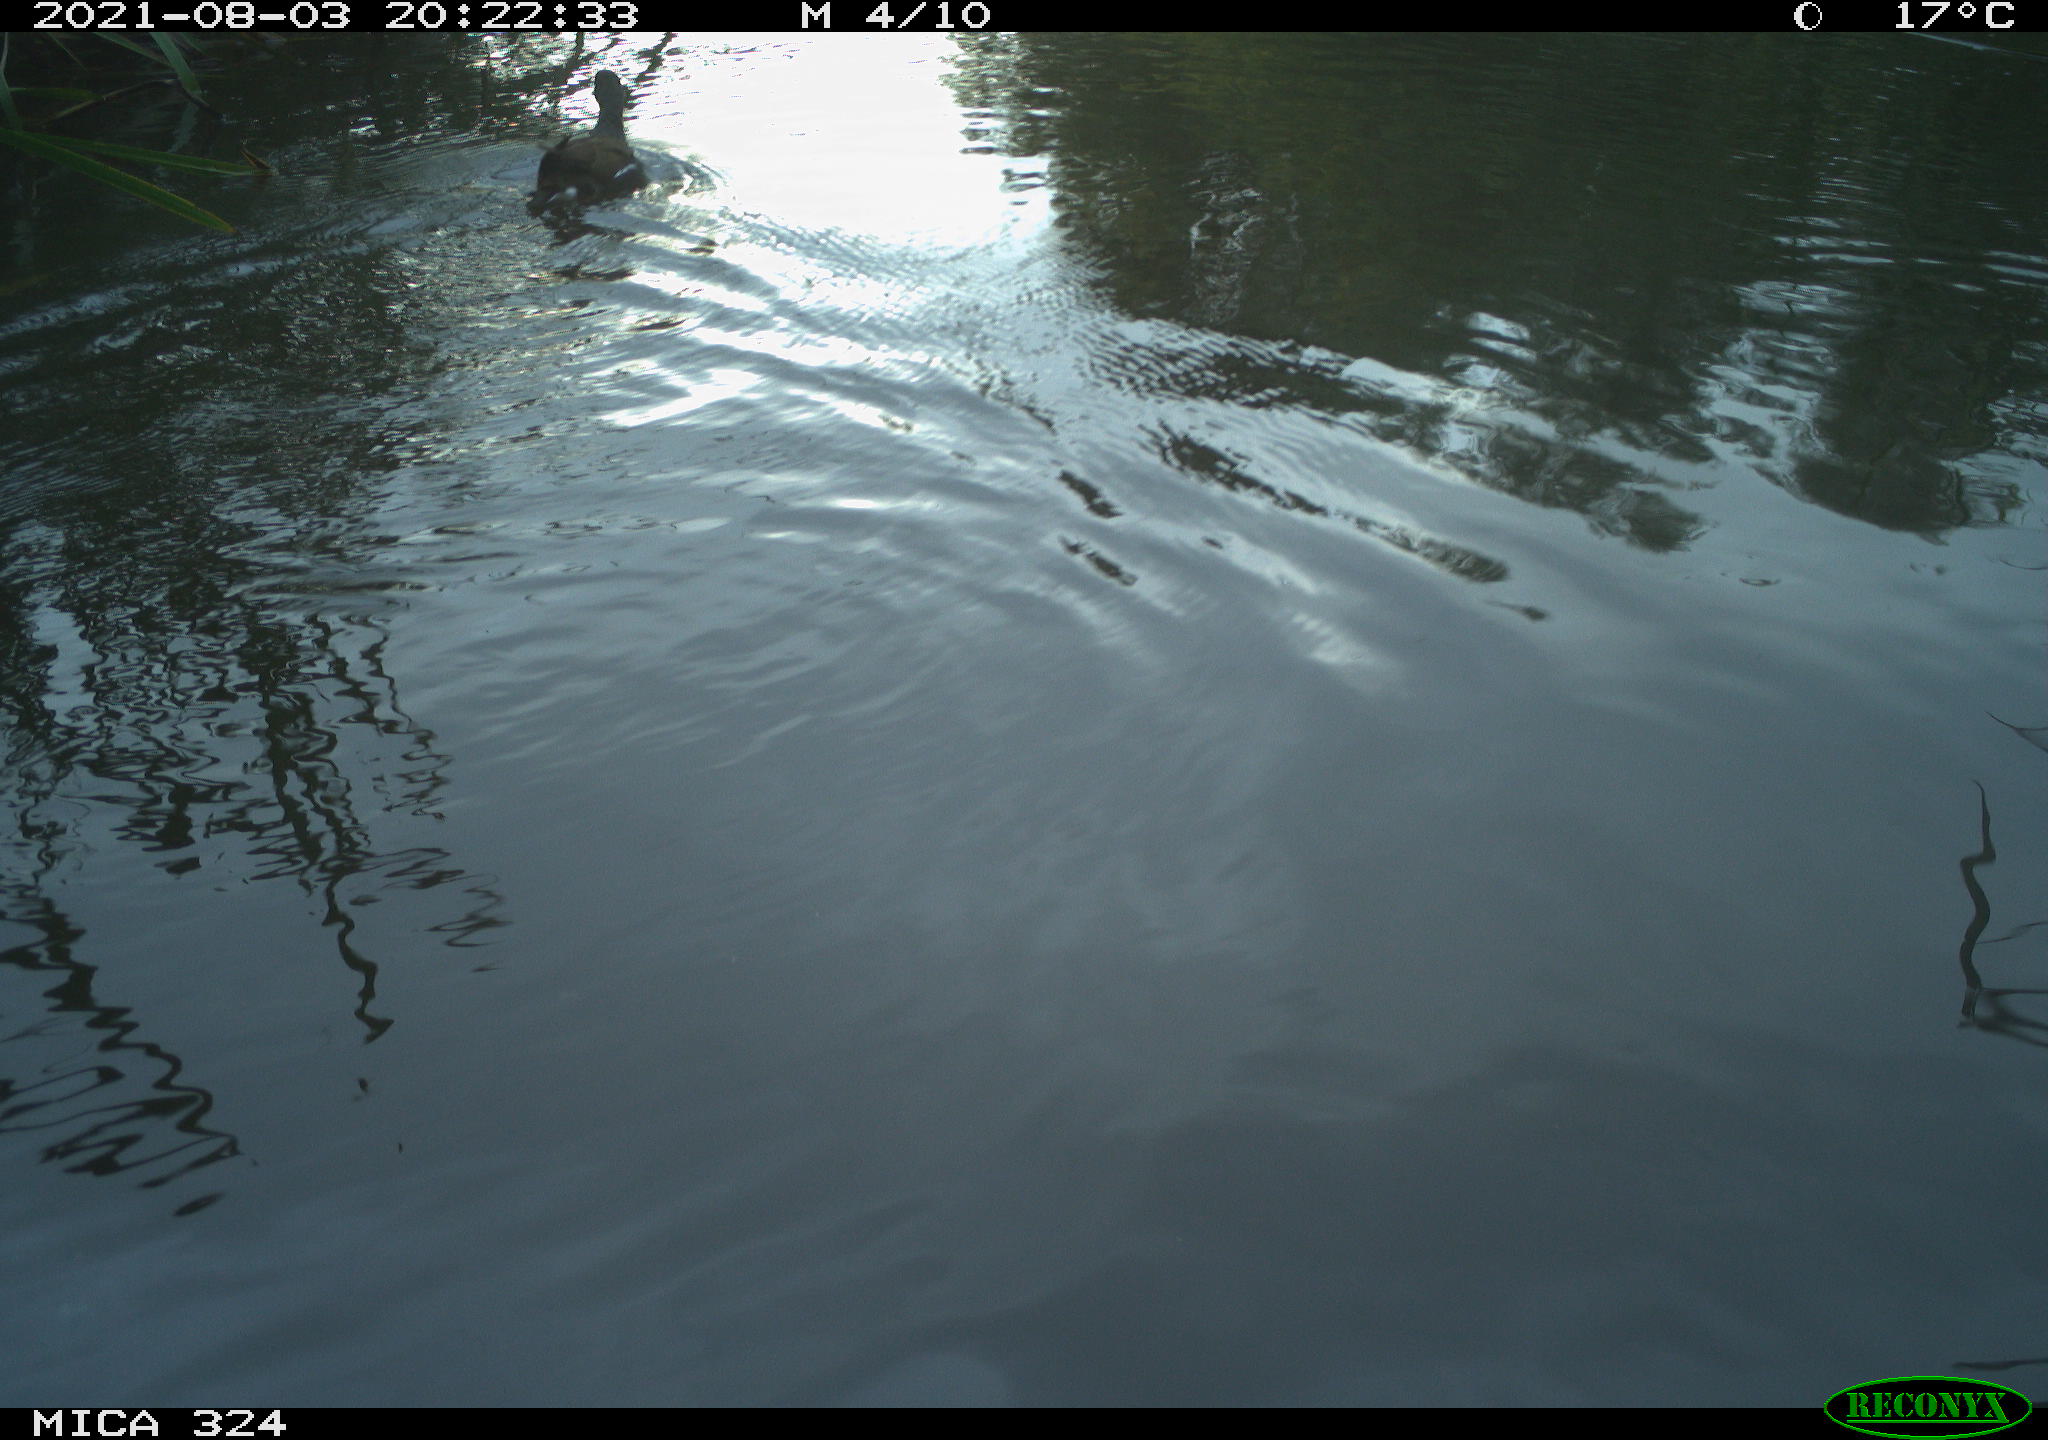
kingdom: Animalia
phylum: Chordata
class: Aves
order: Gruiformes
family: Rallidae
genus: Gallinula
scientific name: Gallinula chloropus
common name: Common moorhen
